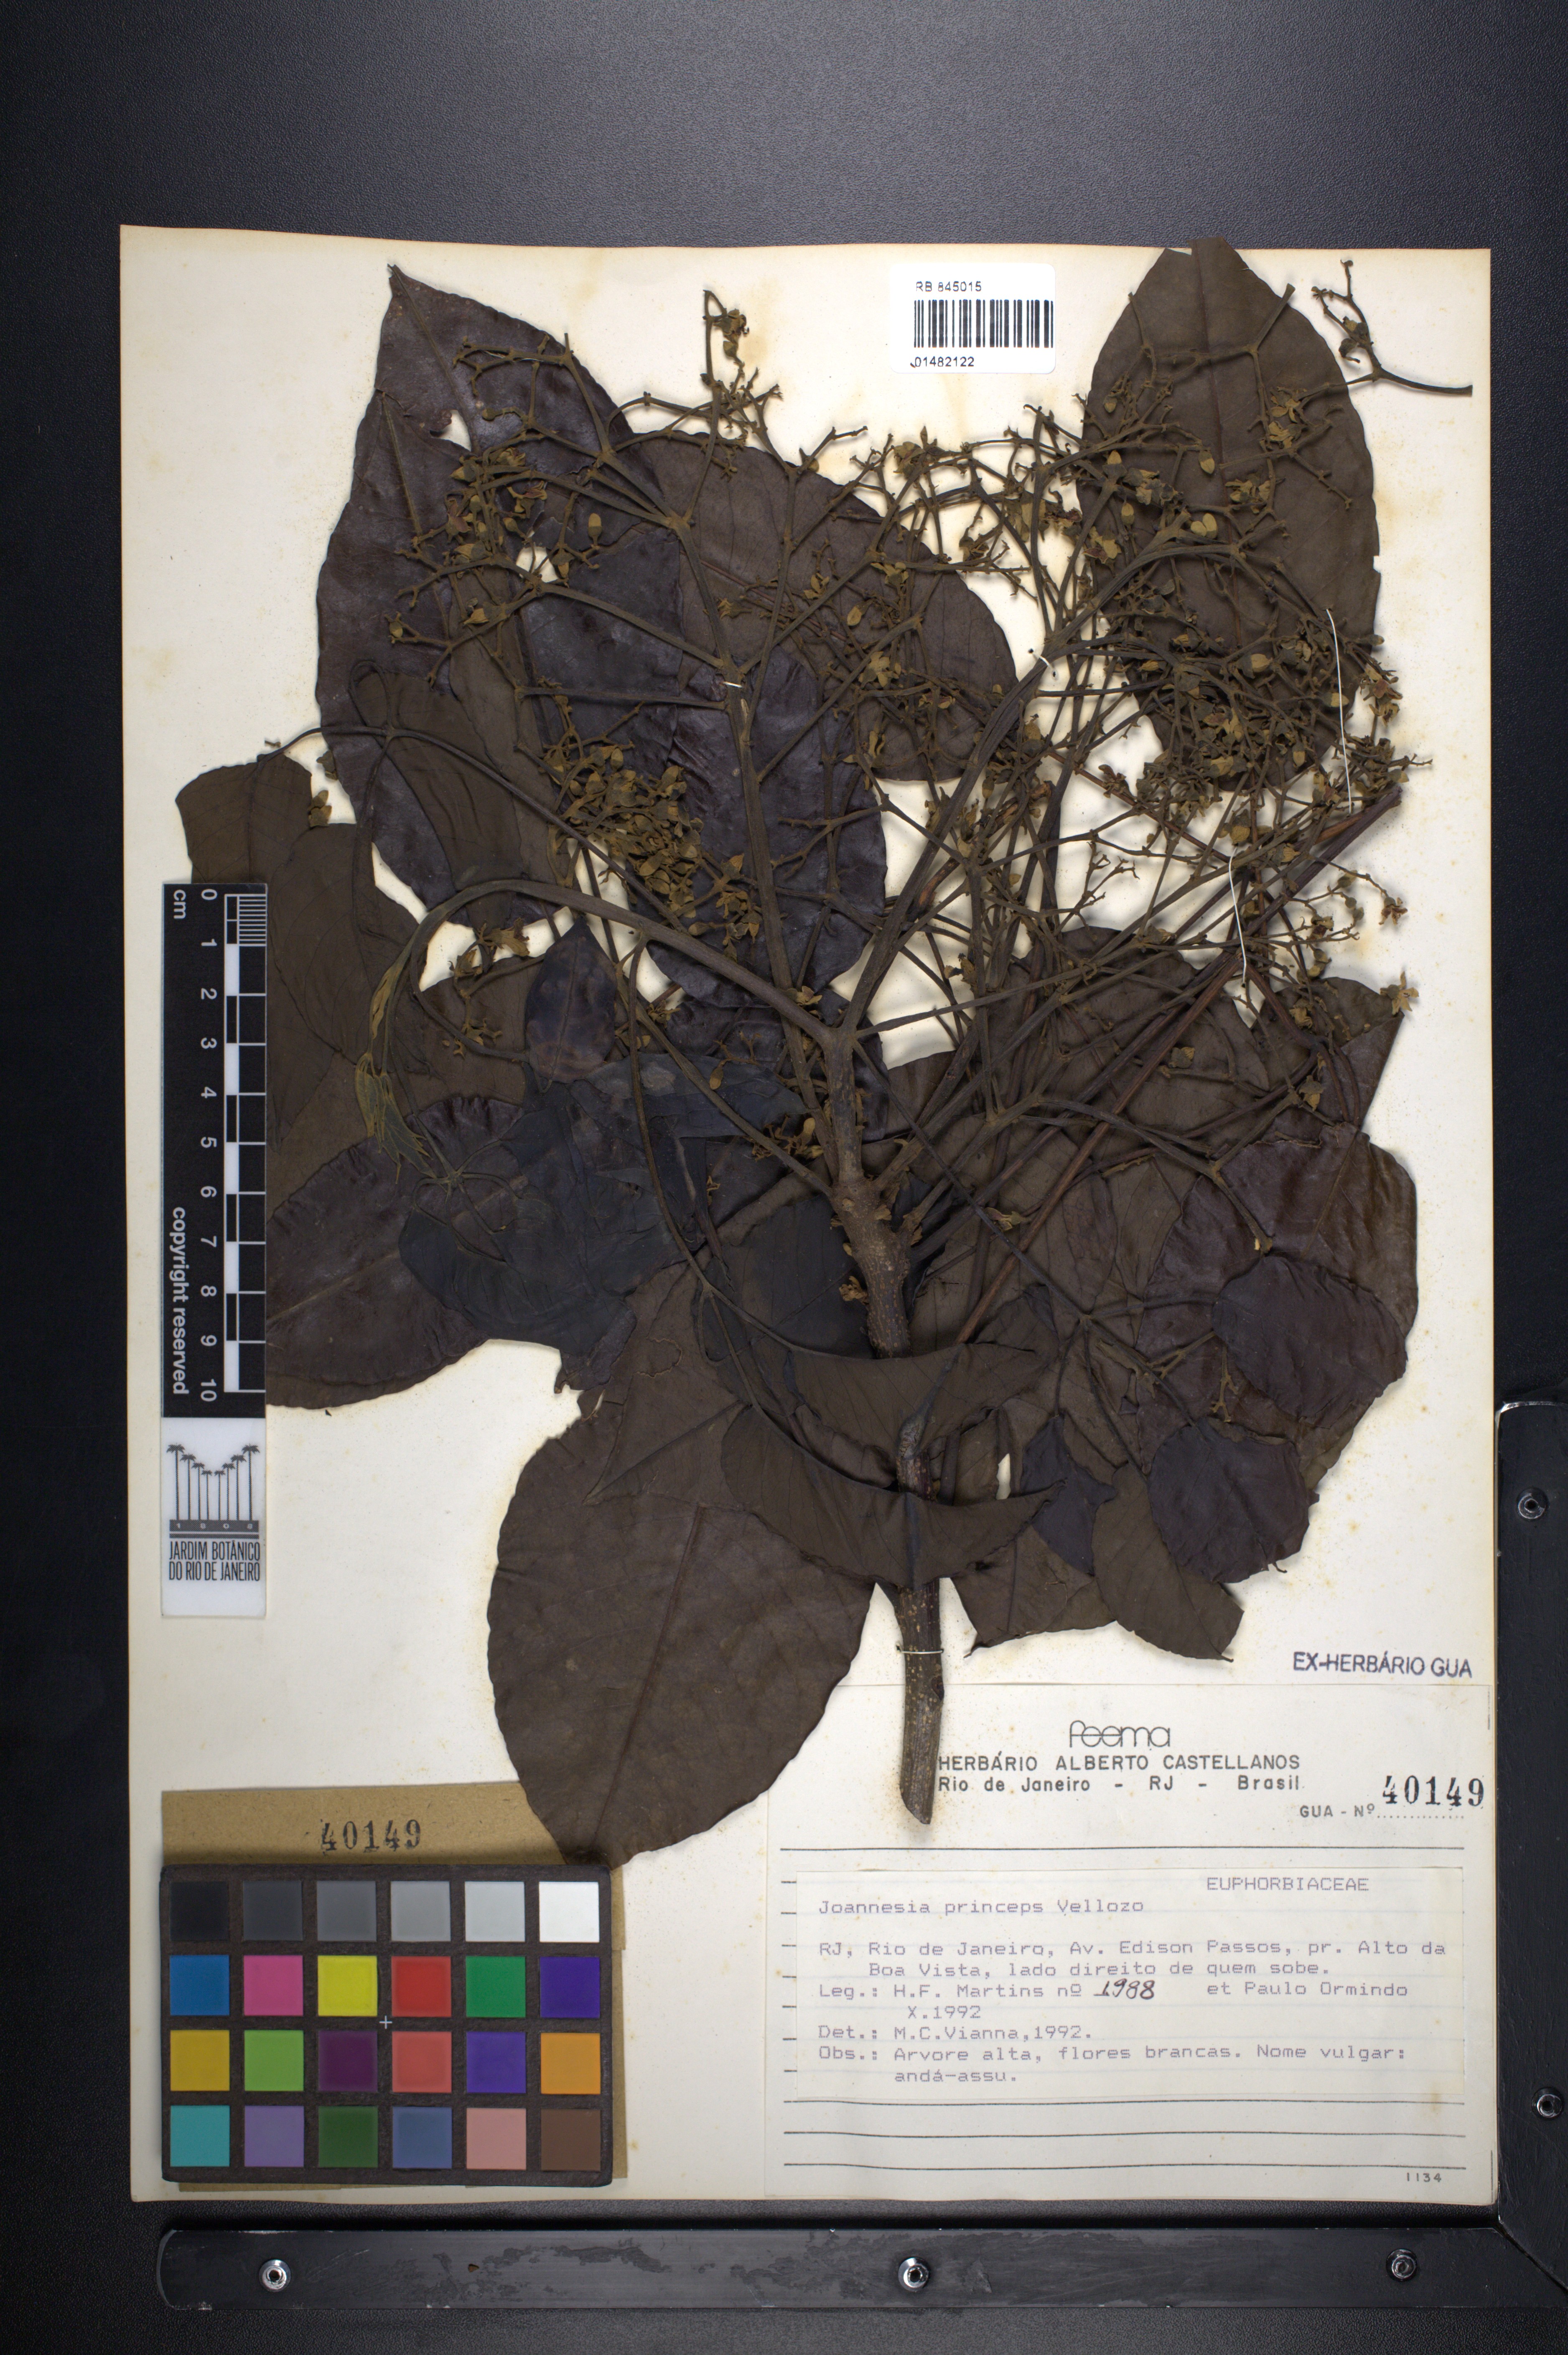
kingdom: Plantae
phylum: Tracheophyta
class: Magnoliopsida
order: Malpighiales
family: Euphorbiaceae
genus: Joannesia
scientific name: Joannesia princeps
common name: Arara nut-tree
